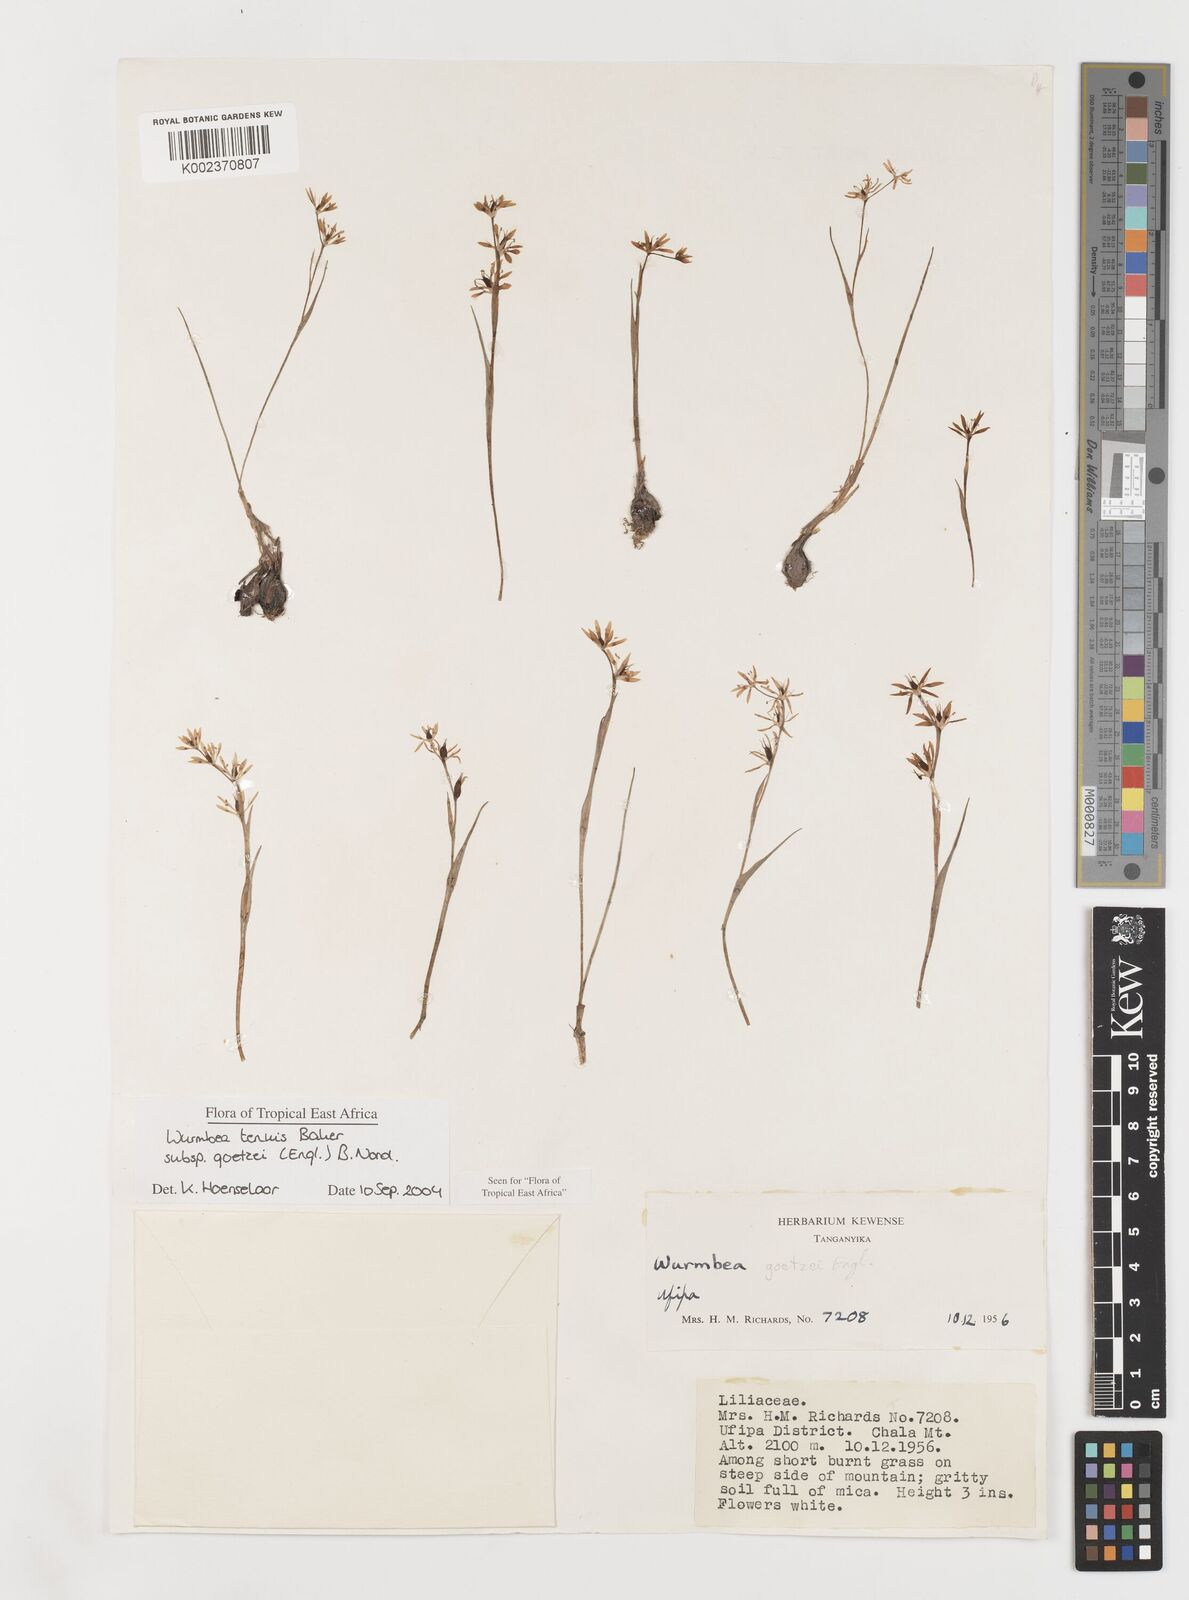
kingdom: Plantae
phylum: Tracheophyta
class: Liliopsida
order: Liliales
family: Colchicaceae
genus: Wurmbea
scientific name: Wurmbea tenuis
